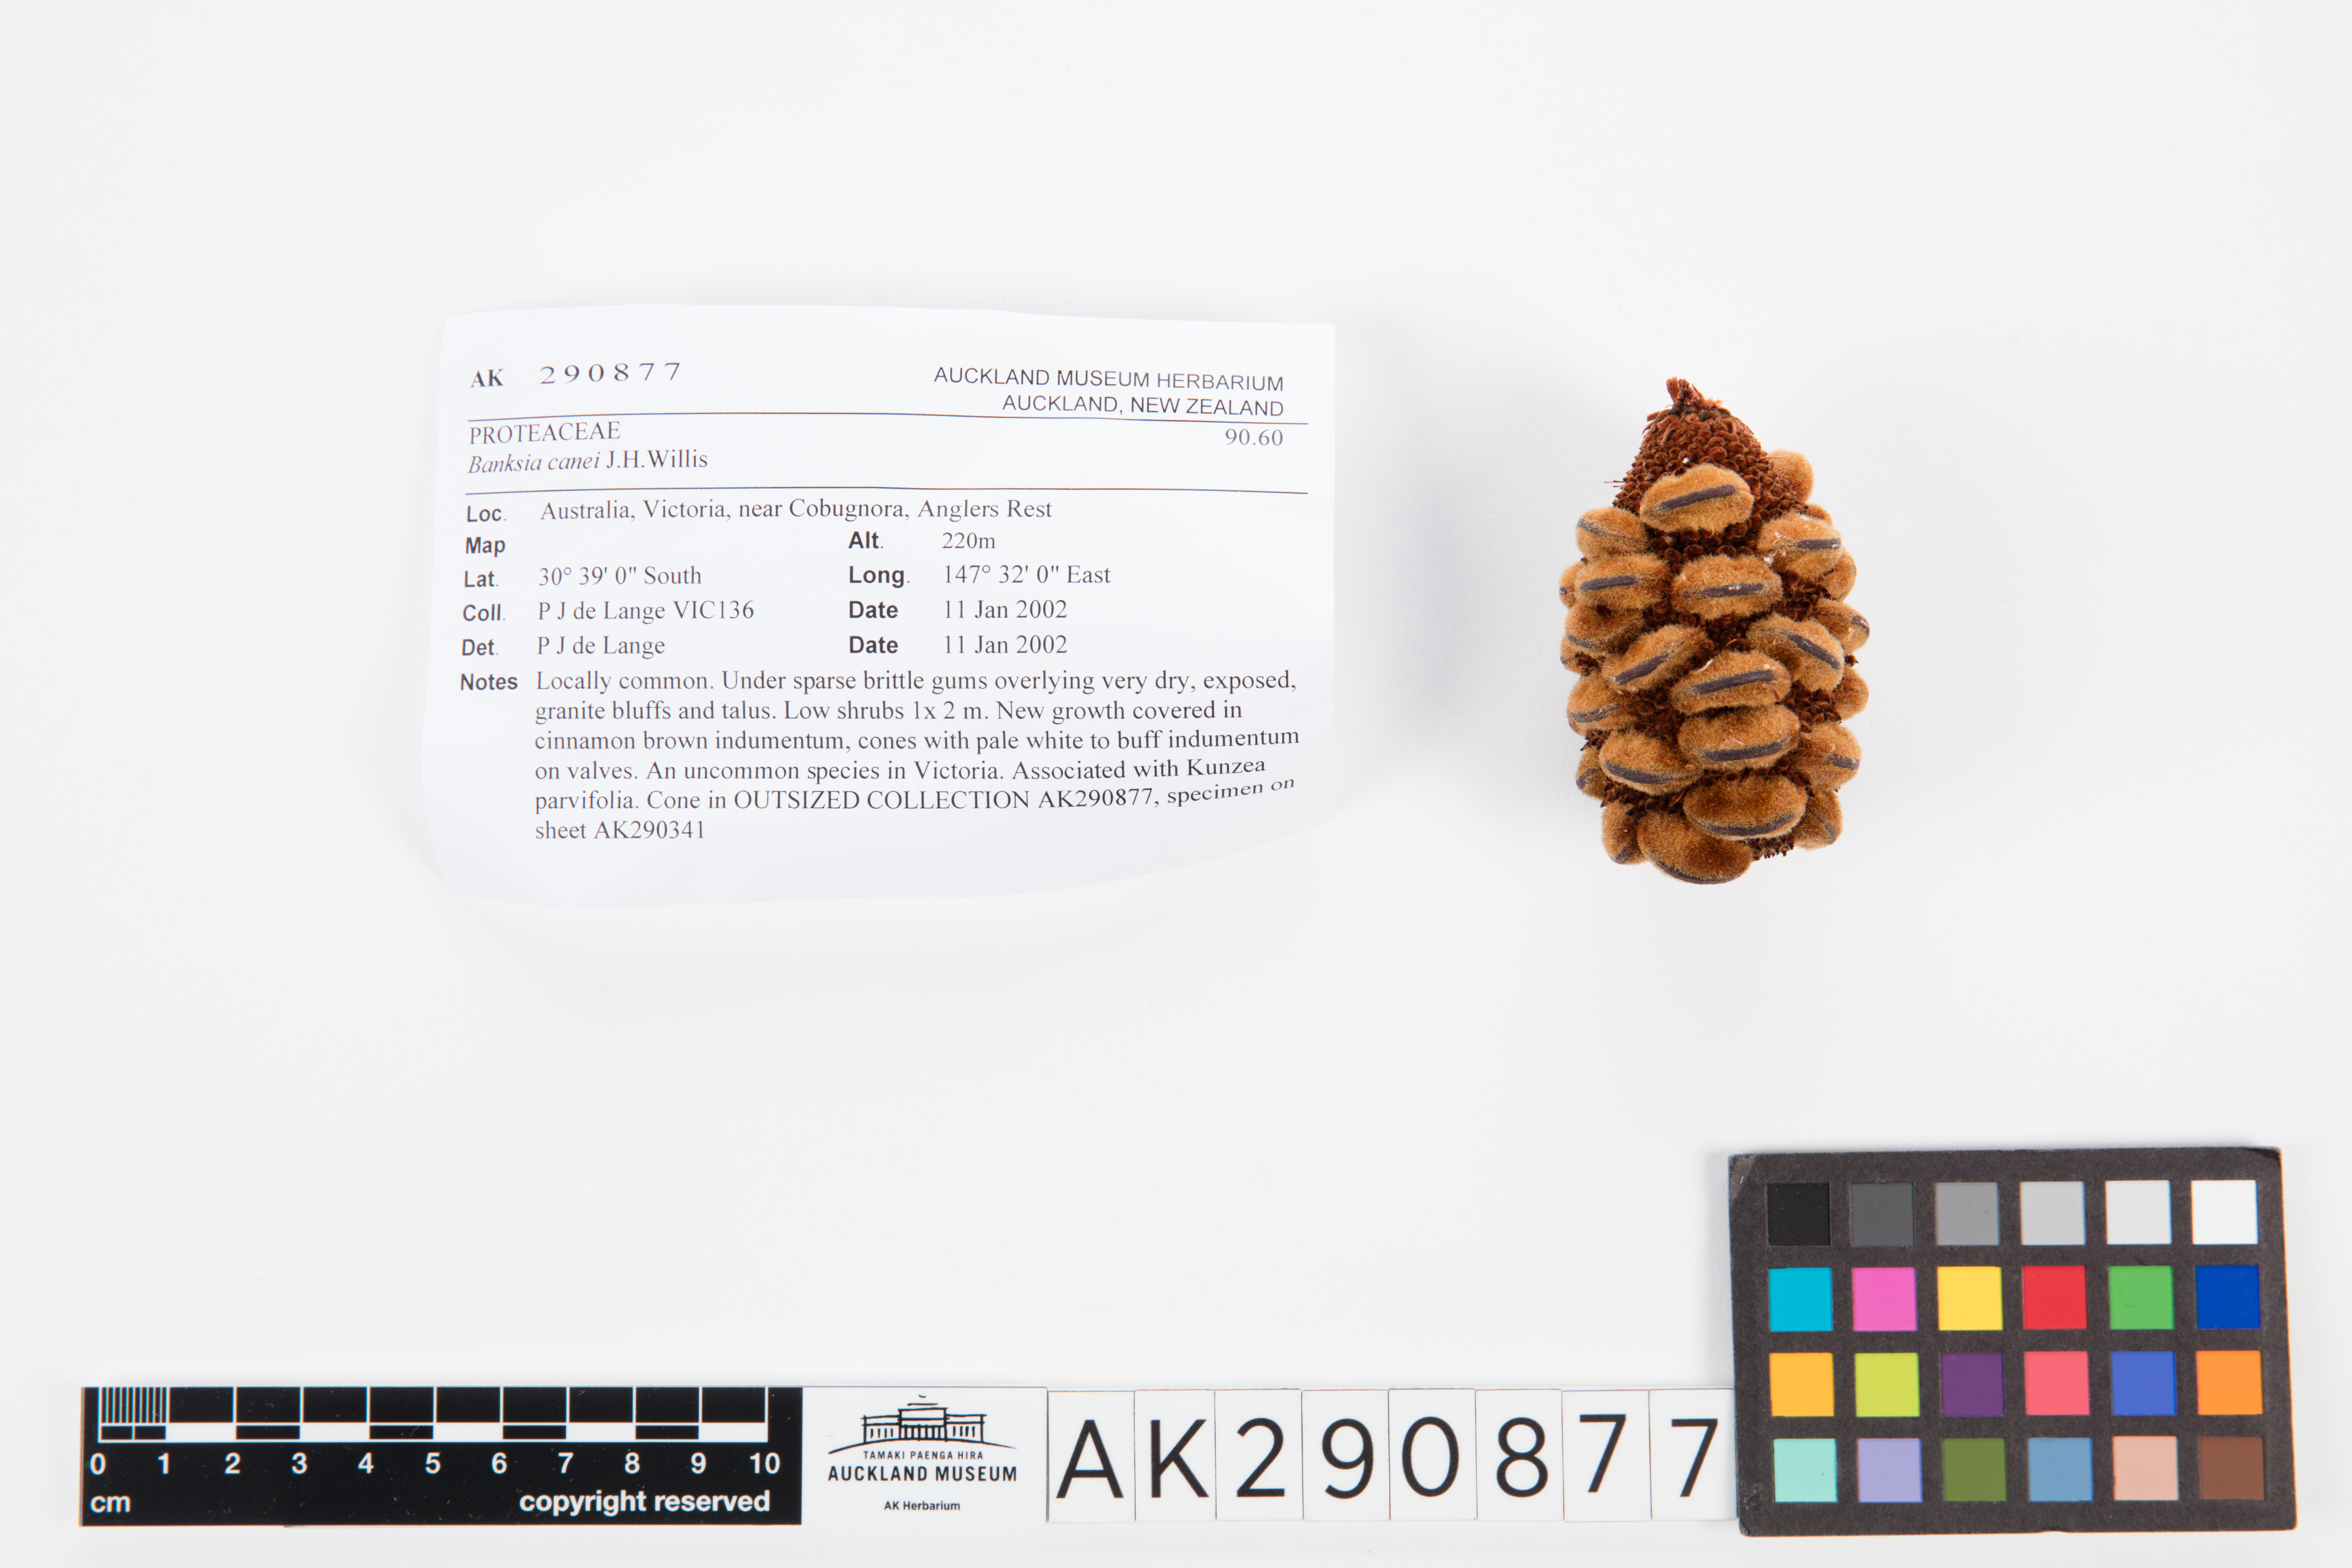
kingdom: Plantae
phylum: Tracheophyta
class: Magnoliopsida
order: Proteales
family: Proteaceae
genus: Banksia
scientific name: Banksia canei
